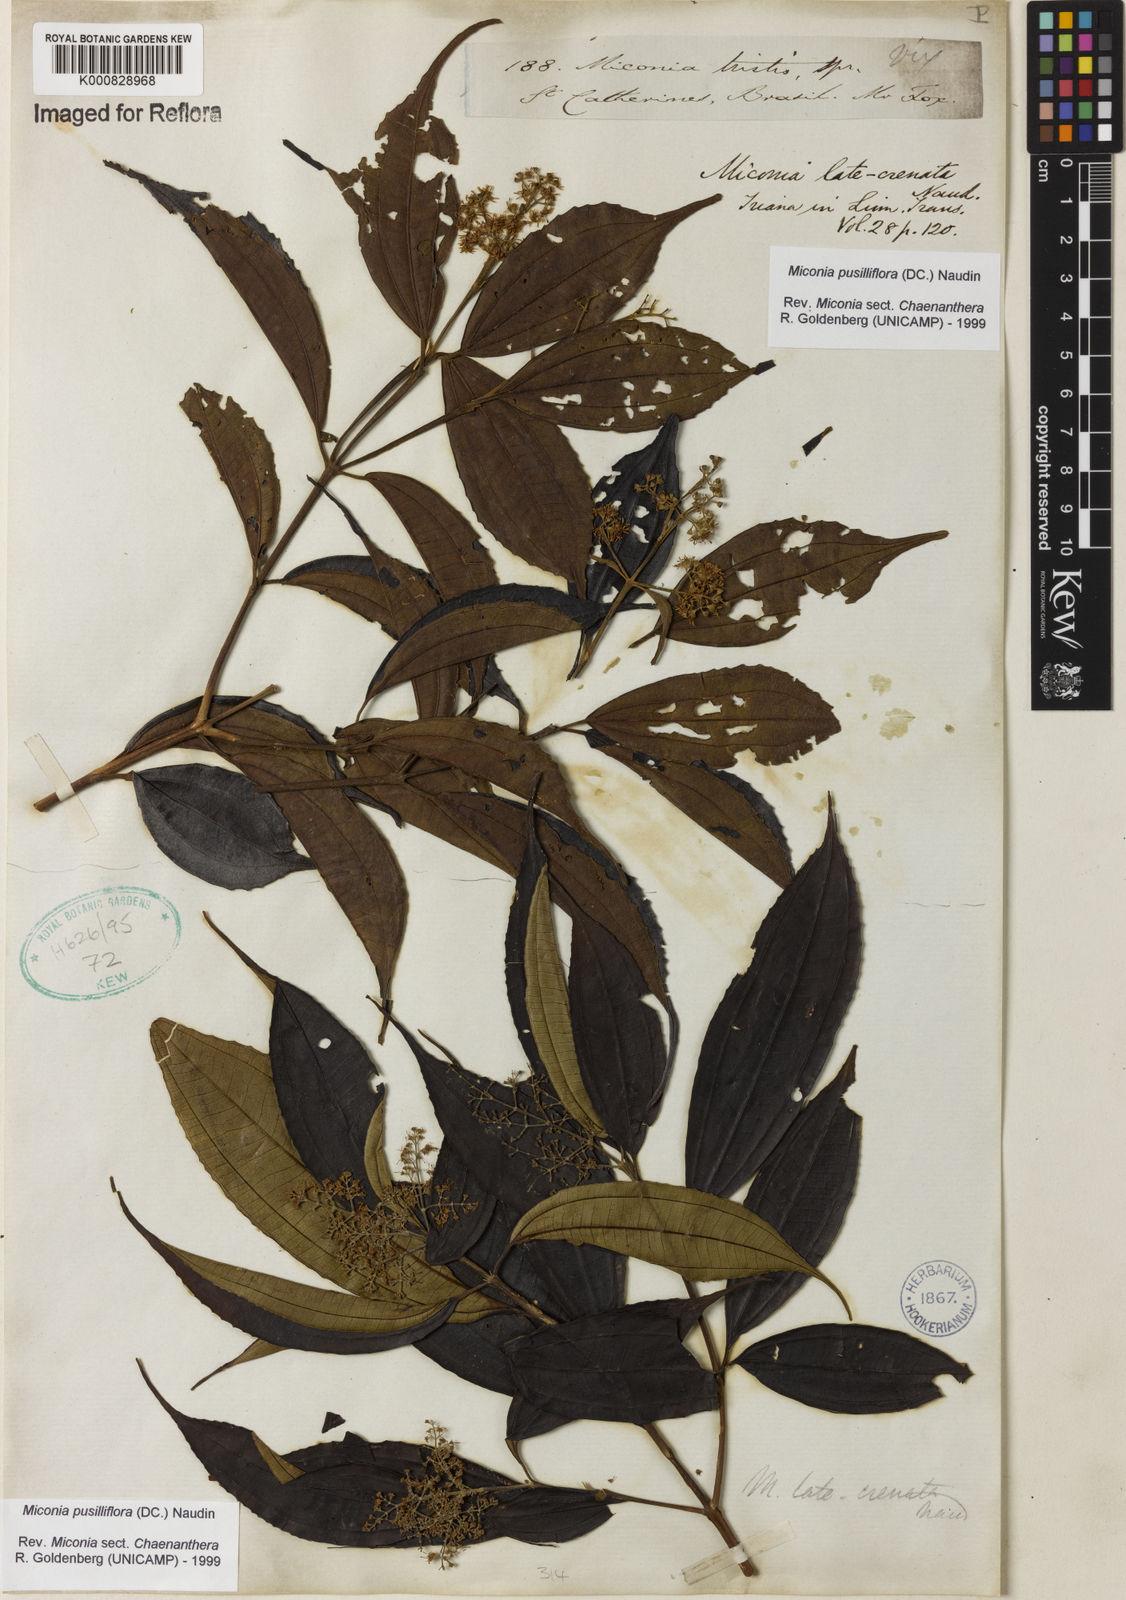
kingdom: Plantae
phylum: Tracheophyta
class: Magnoliopsida
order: Myrtales
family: Melastomataceae
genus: Miconia
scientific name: Miconia pusilliflora
